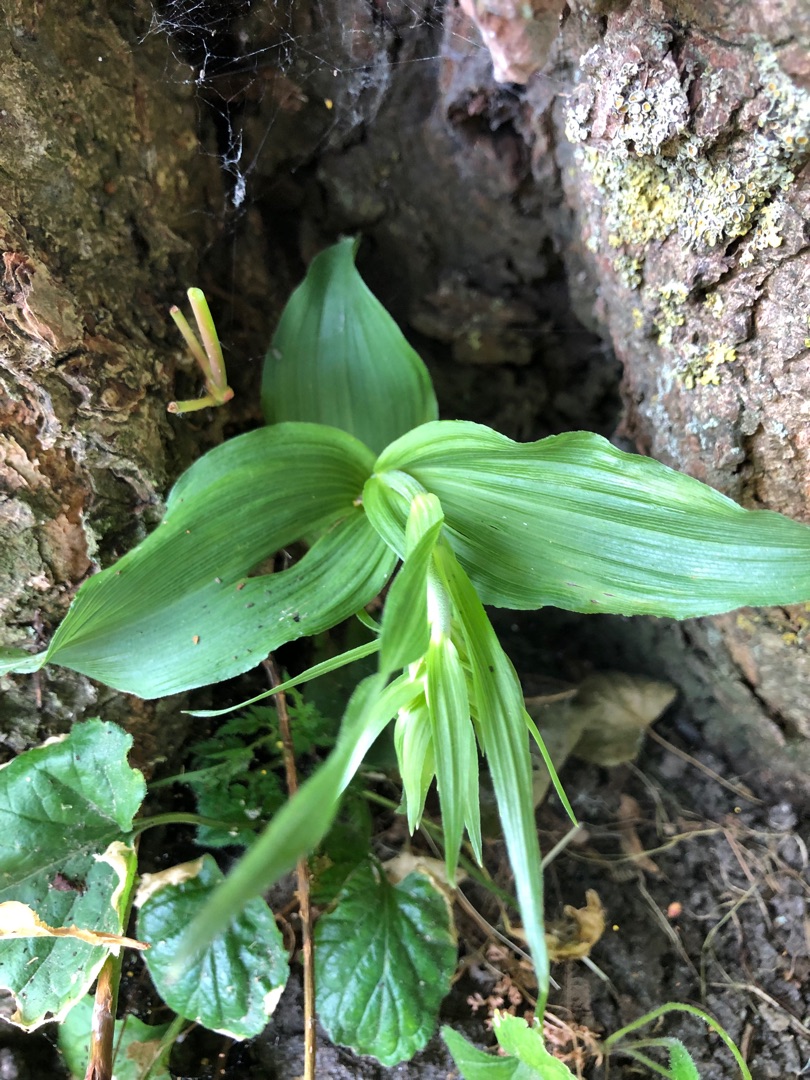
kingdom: Plantae
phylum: Tracheophyta
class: Liliopsida
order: Asparagales
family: Orchidaceae
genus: Epipactis
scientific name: Epipactis helleborine
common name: Skov-hullæbe
